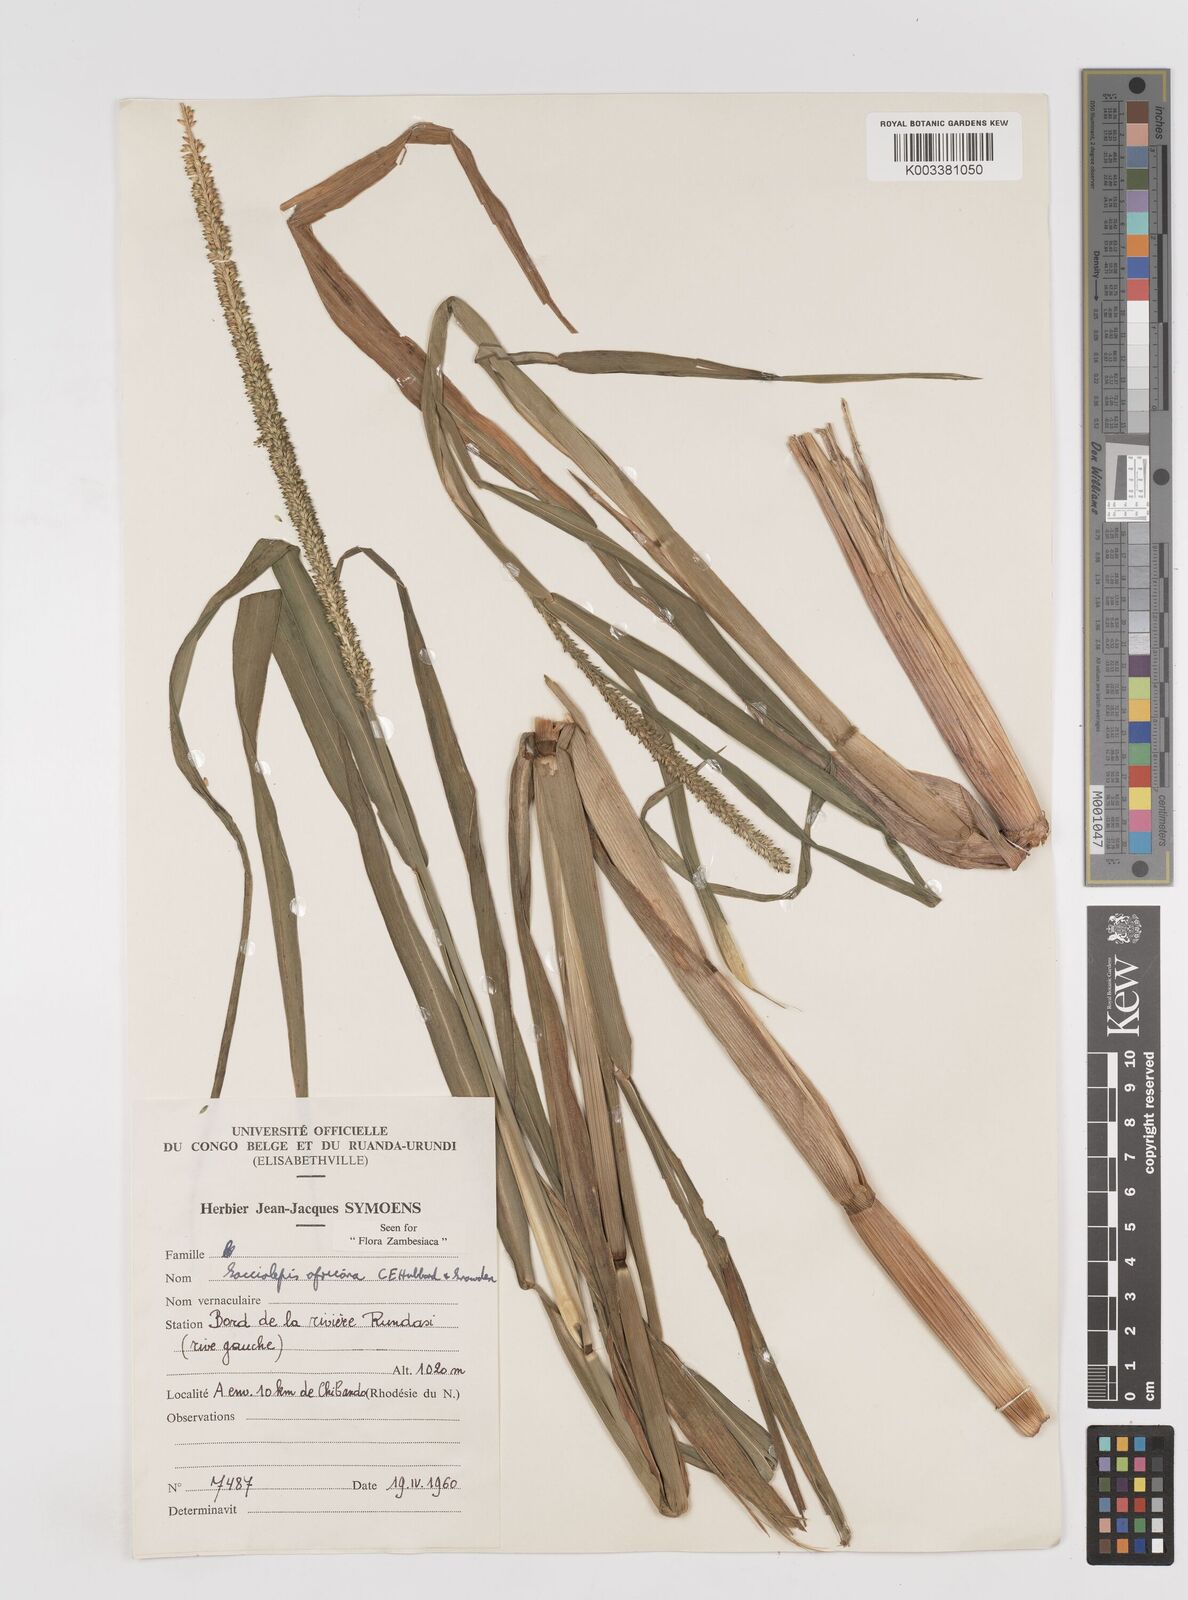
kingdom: Plantae
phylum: Tracheophyta
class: Liliopsida
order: Poales
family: Poaceae
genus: Sacciolepis
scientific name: Sacciolepis africana
